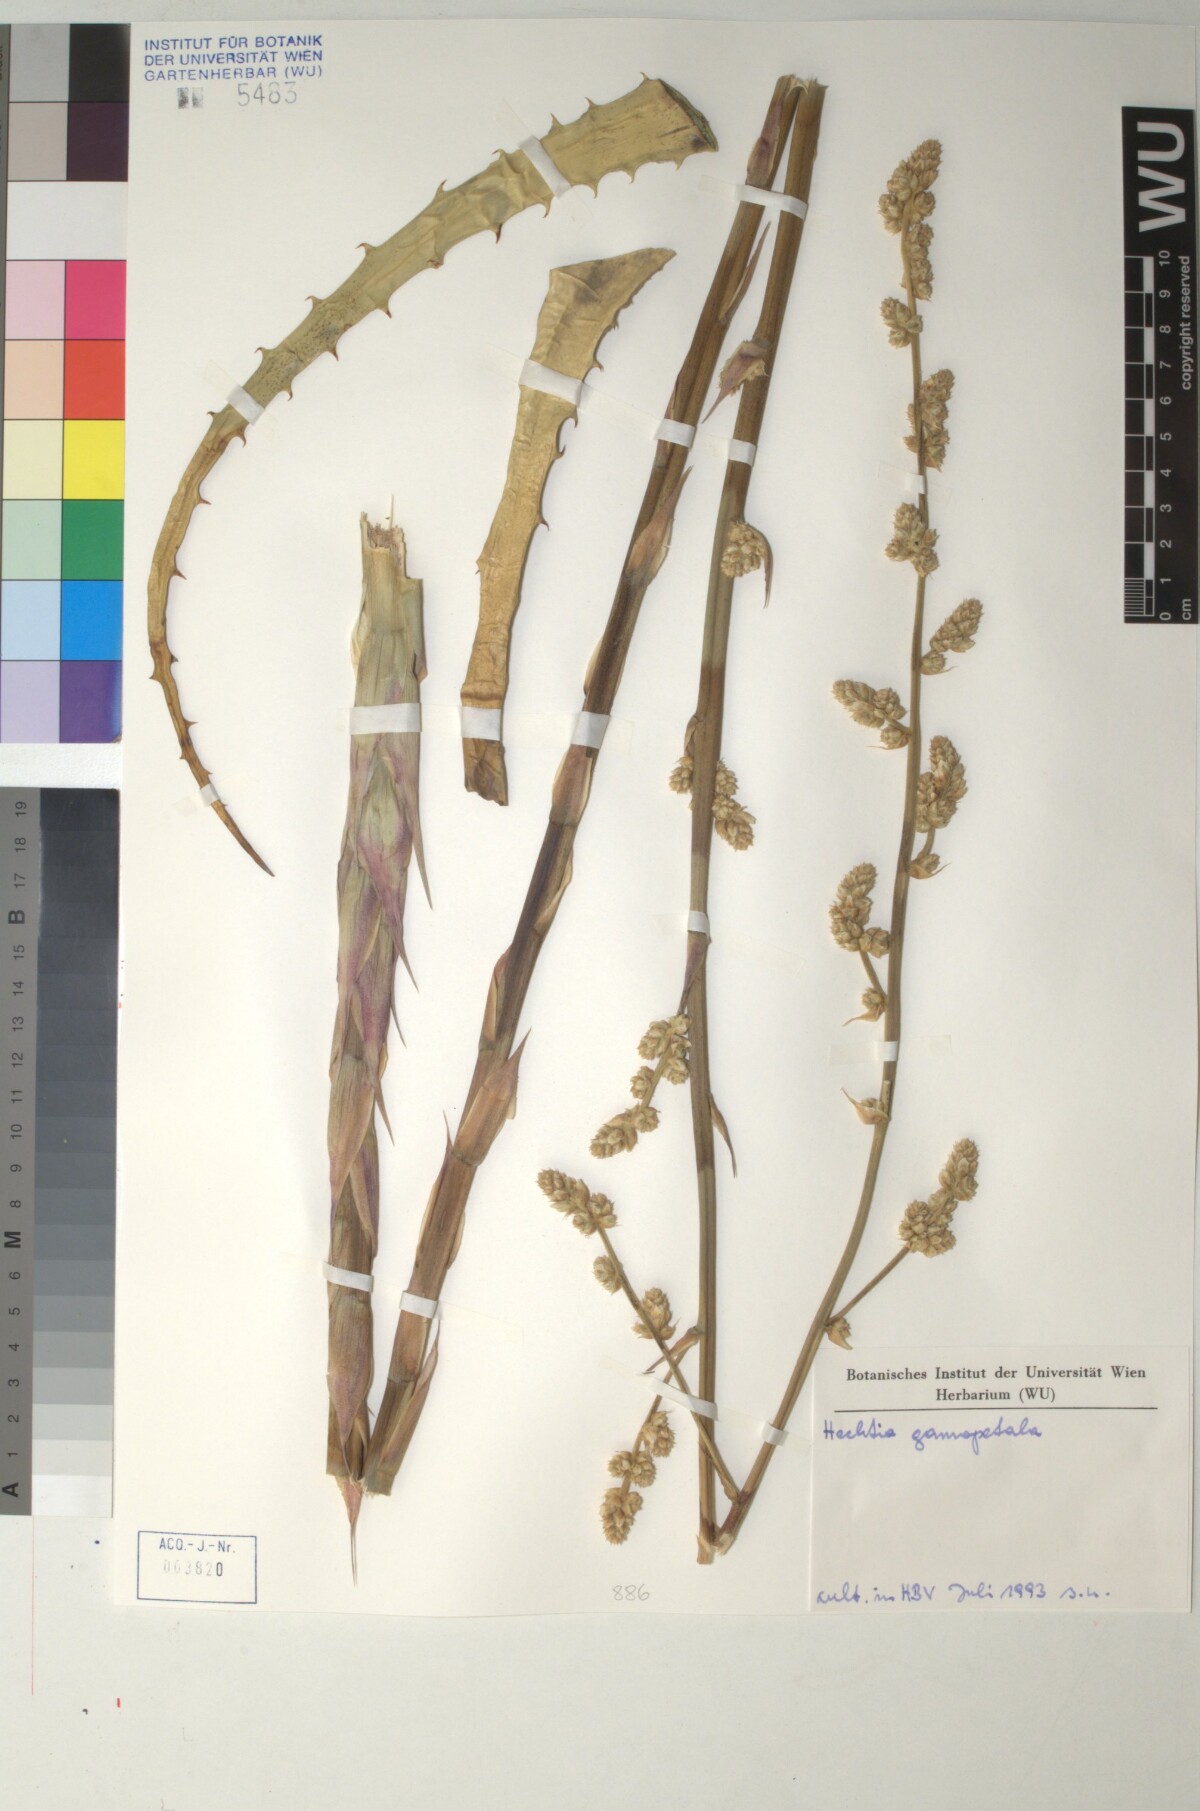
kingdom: Plantae
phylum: Tracheophyta
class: Liliopsida
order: Poales
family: Bromeliaceae
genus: Hechtia
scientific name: Hechtia glomerata
